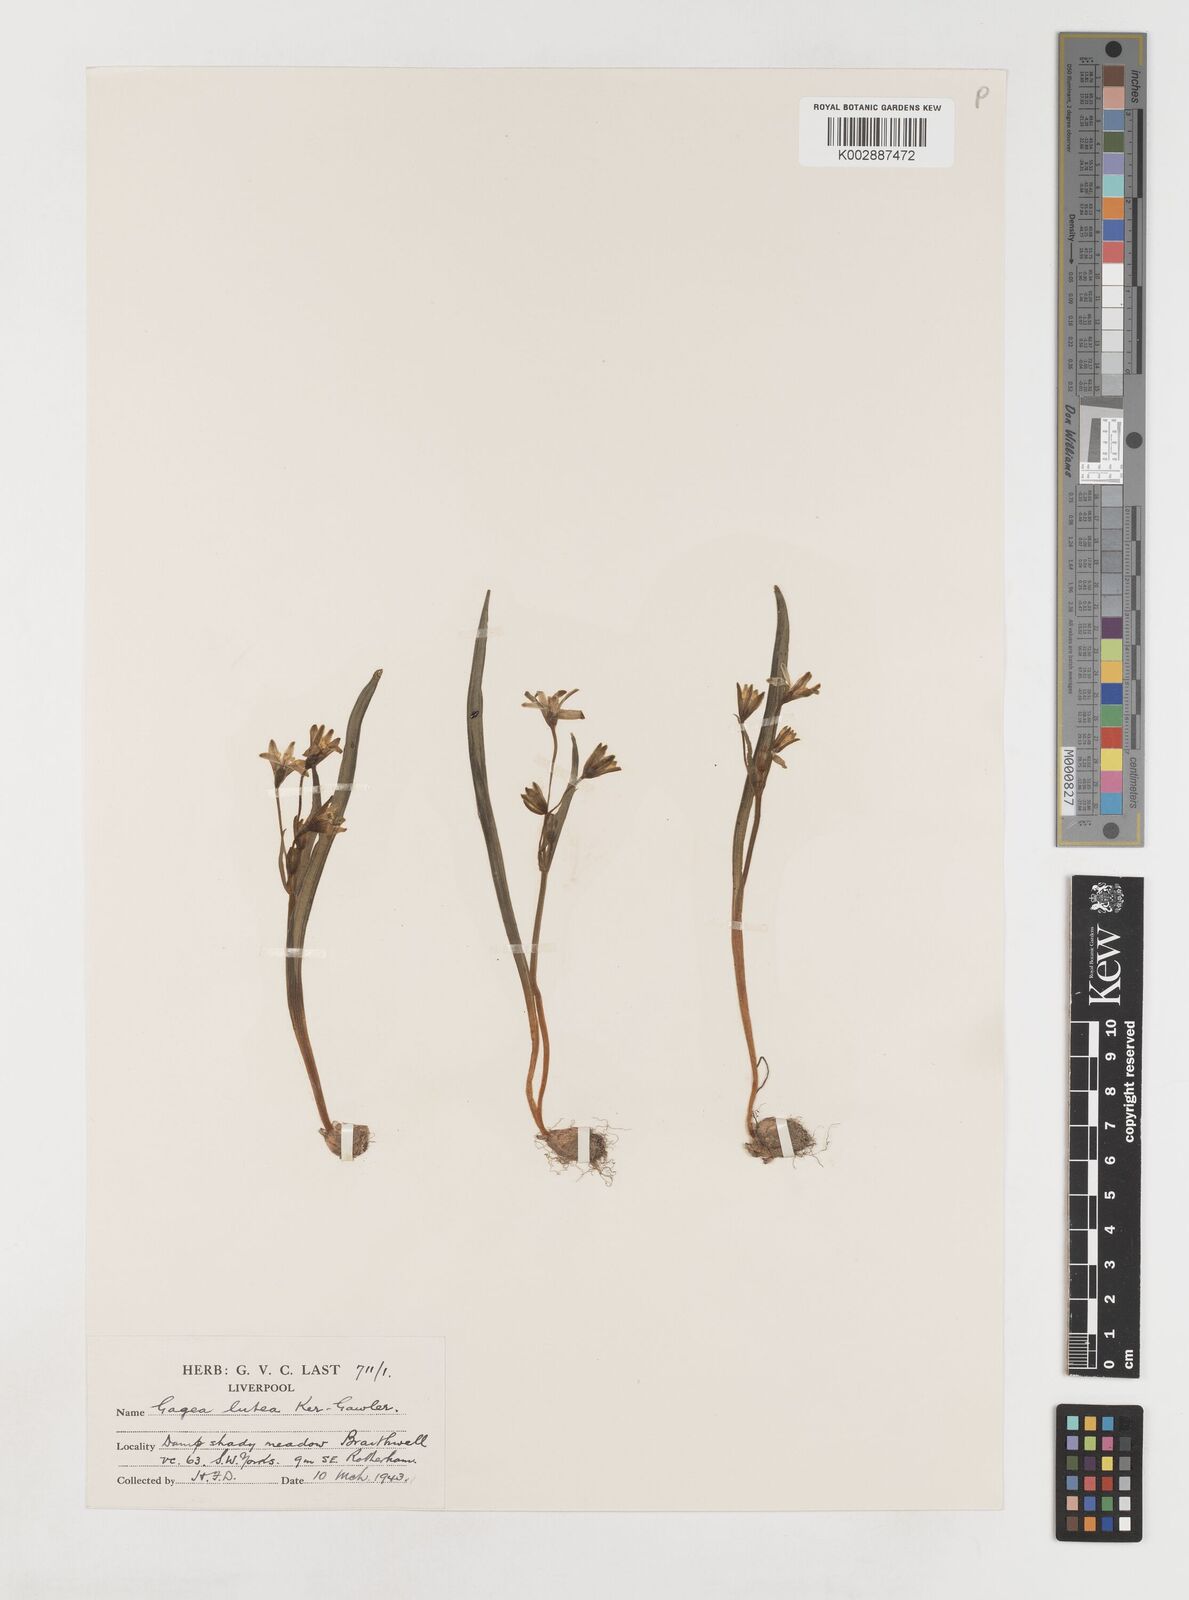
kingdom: Plantae
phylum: Tracheophyta
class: Liliopsida
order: Liliales
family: Liliaceae
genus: Gagea
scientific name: Gagea lutea
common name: Yellow star-of-bethlehem
